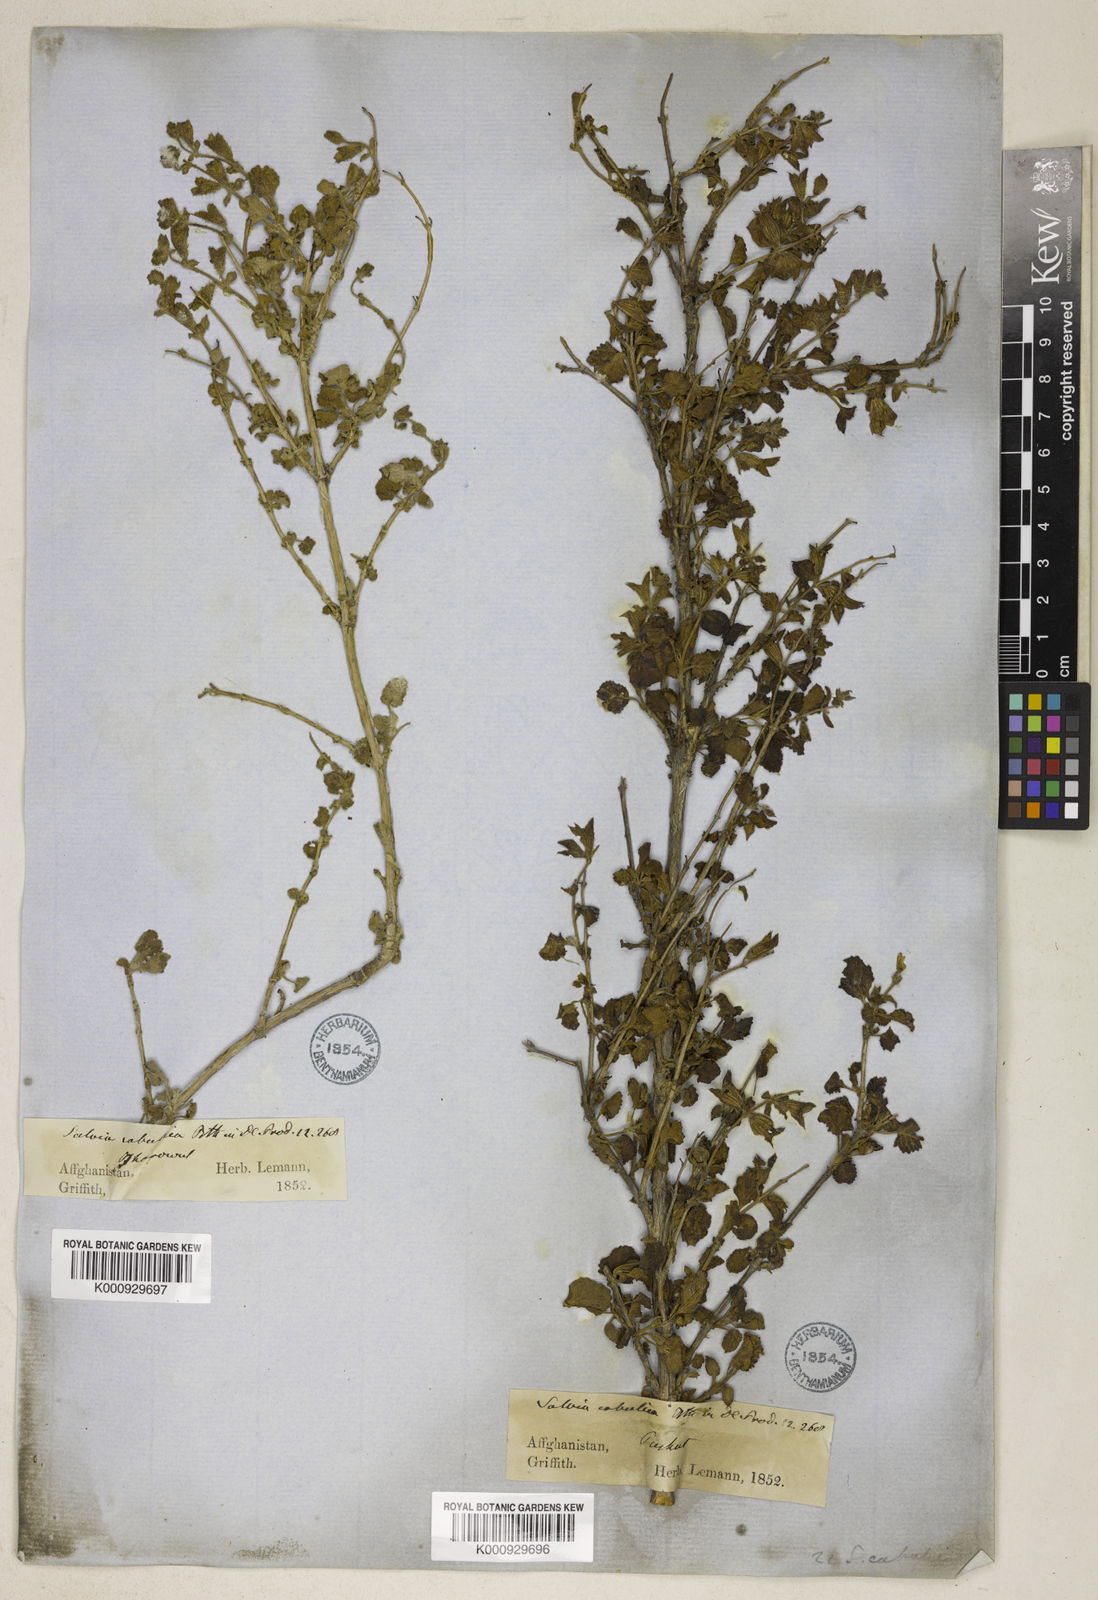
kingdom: Plantae
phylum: Tracheophyta
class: Magnoliopsida
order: Lamiales
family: Lamiaceae
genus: Salvia
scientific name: Salvia cabulica
